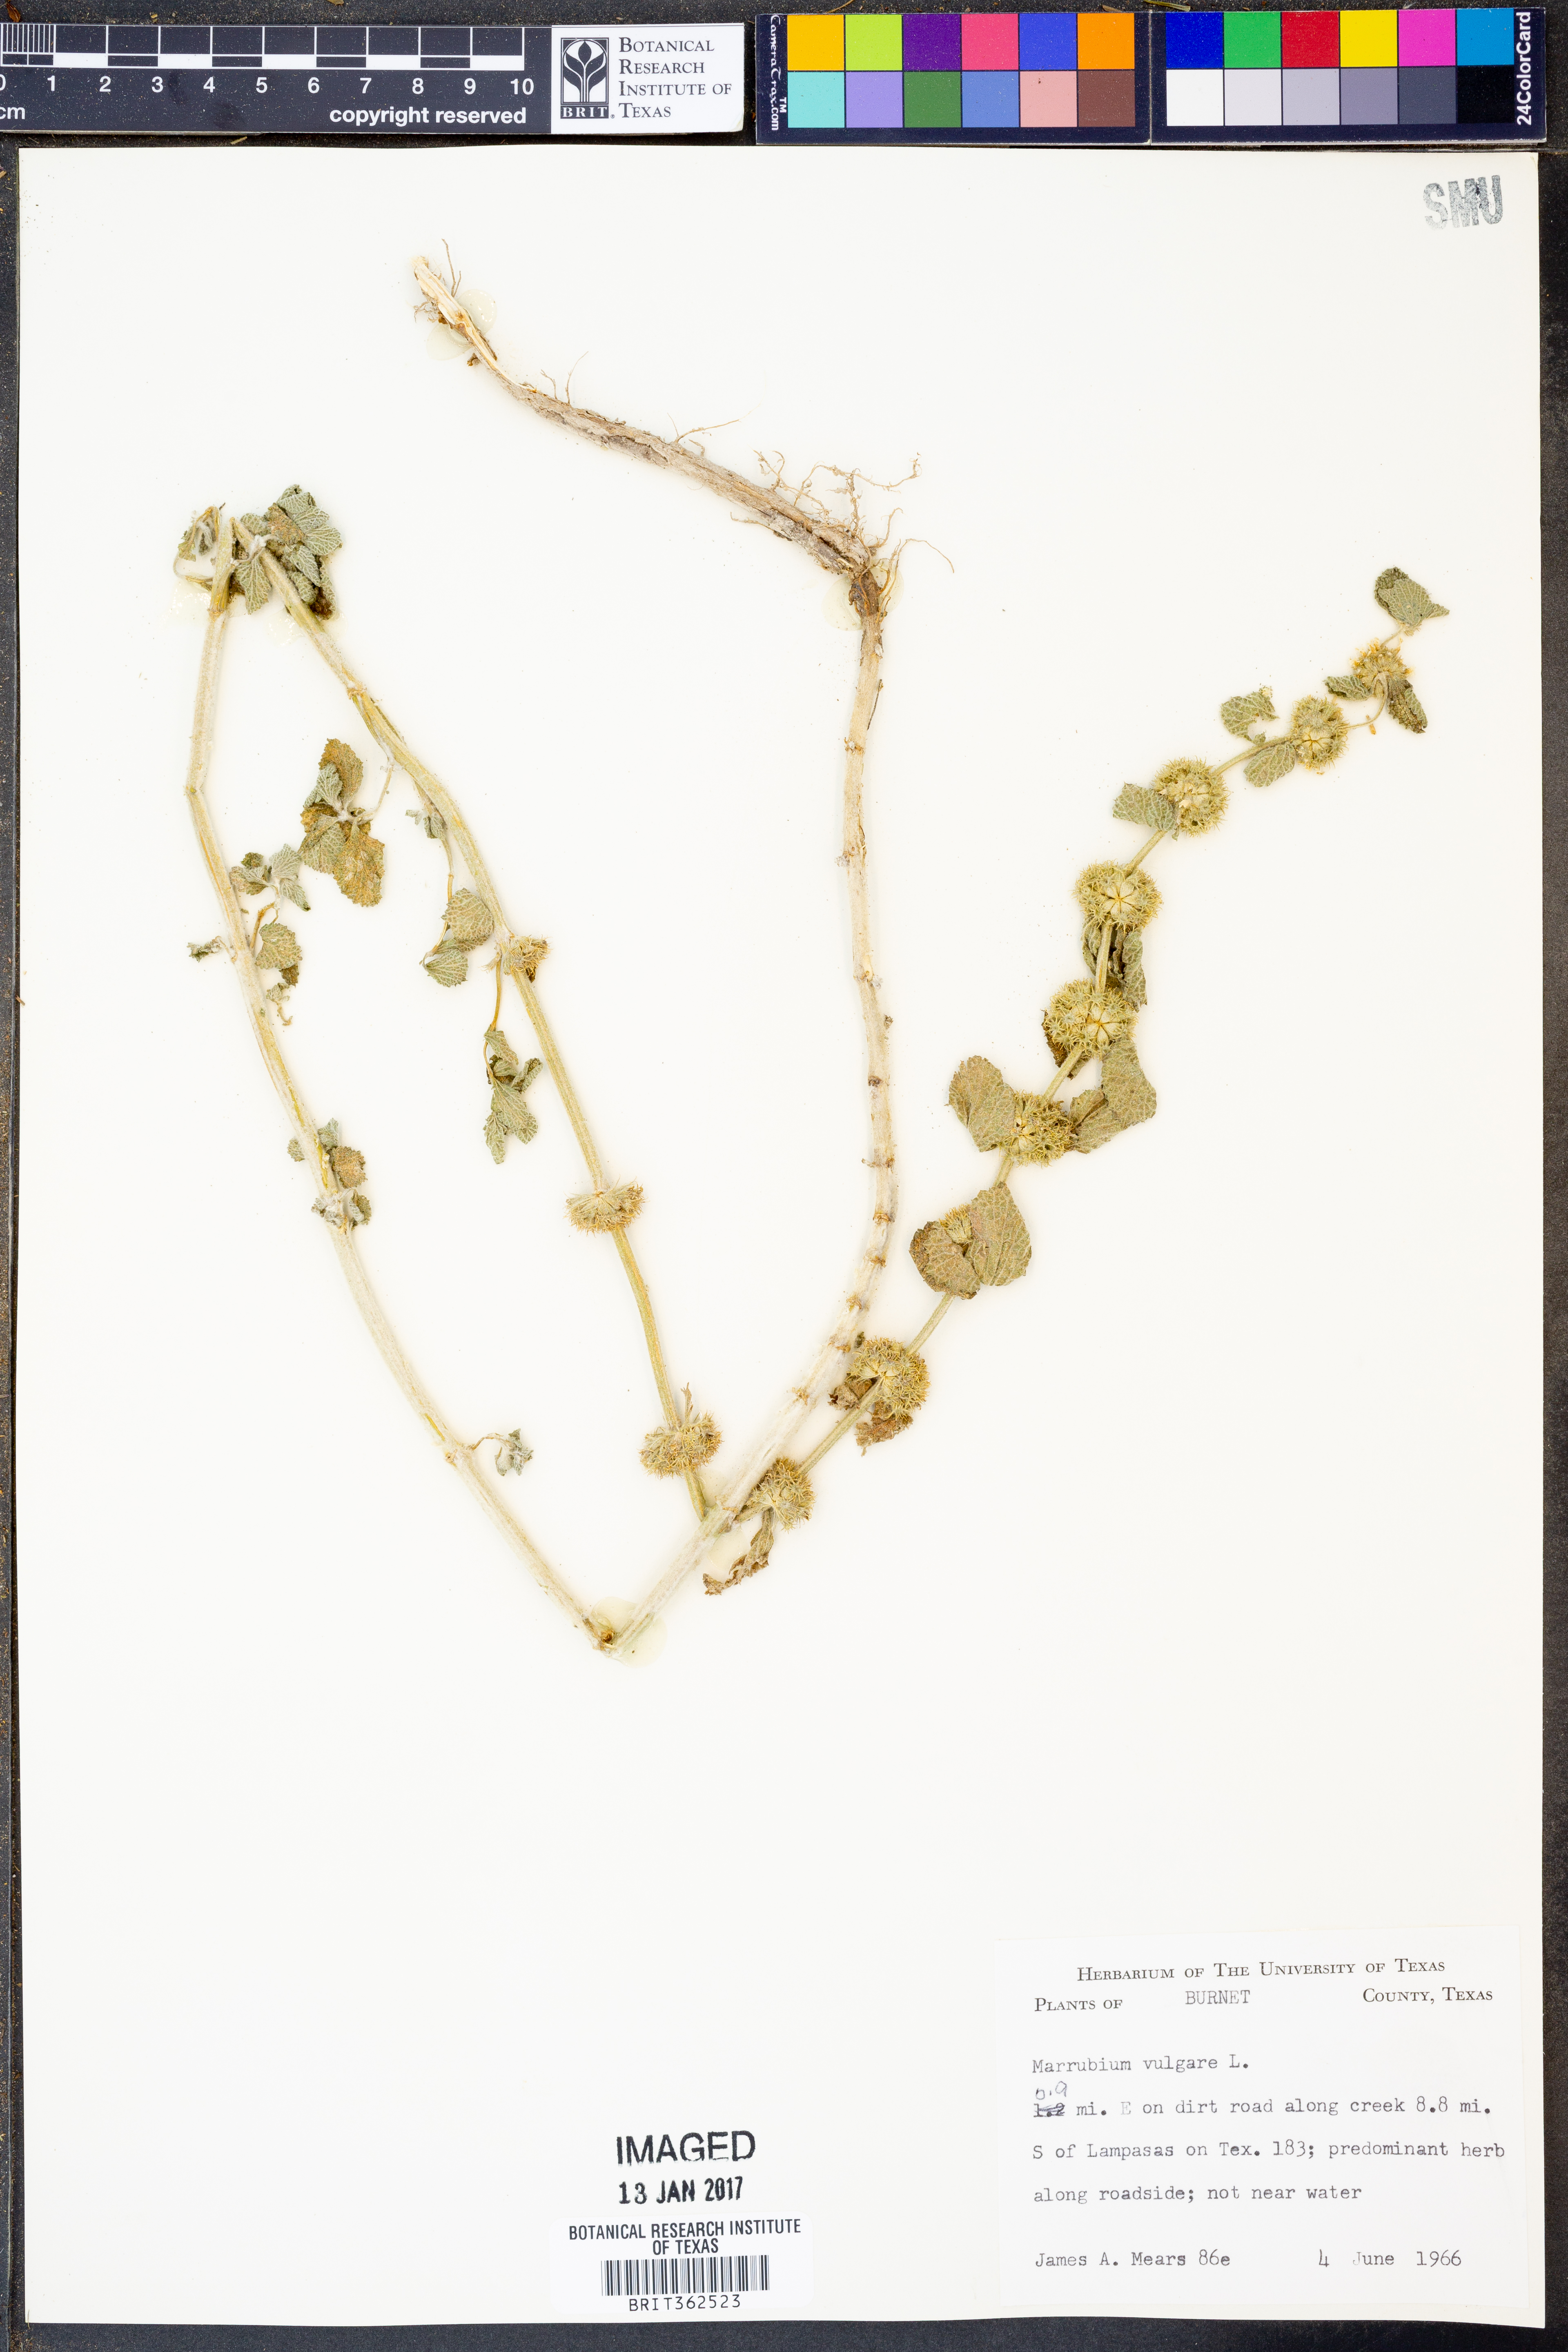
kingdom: Plantae
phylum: Tracheophyta
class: Magnoliopsida
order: Lamiales
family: Lamiaceae
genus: Marrubium
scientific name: Marrubium vulgare
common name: Horehound
